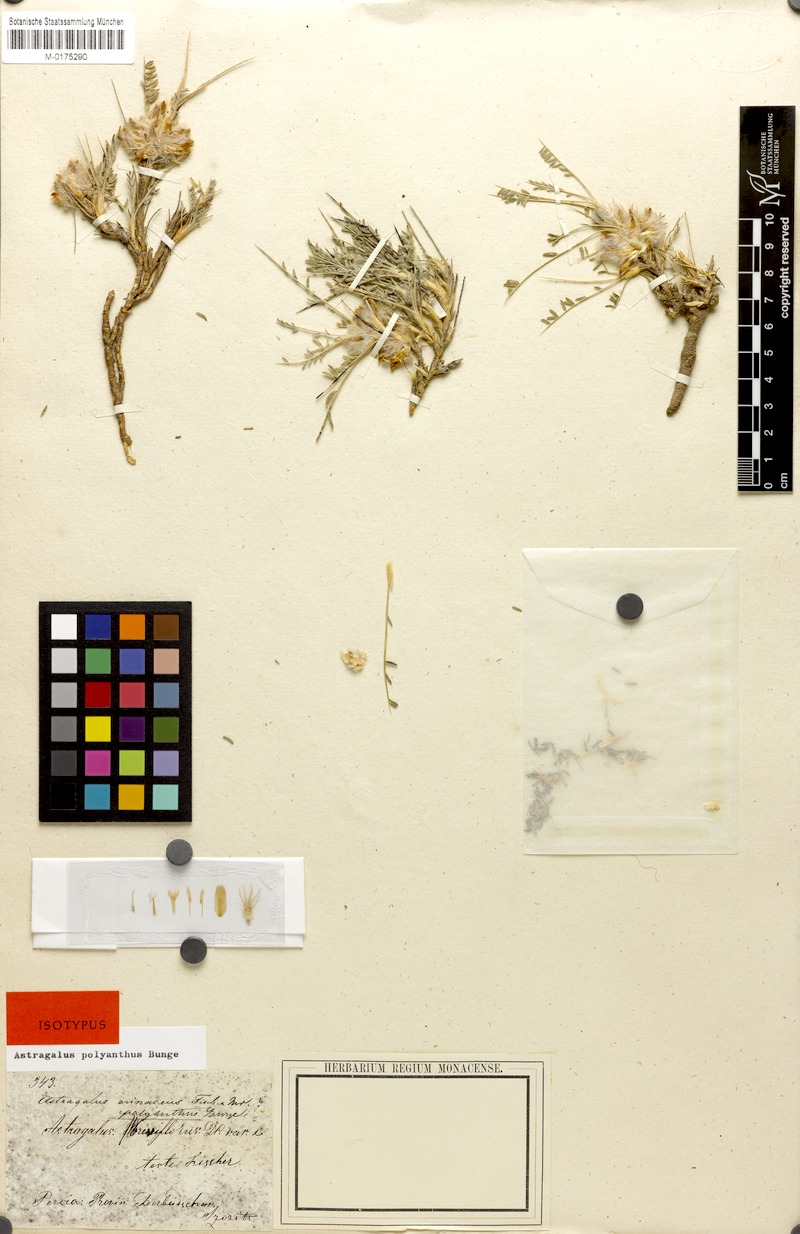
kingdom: Plantae
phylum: Tracheophyta
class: Magnoliopsida
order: Fabales
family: Fabaceae
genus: Astragalus
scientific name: Astragalus polyanthus
